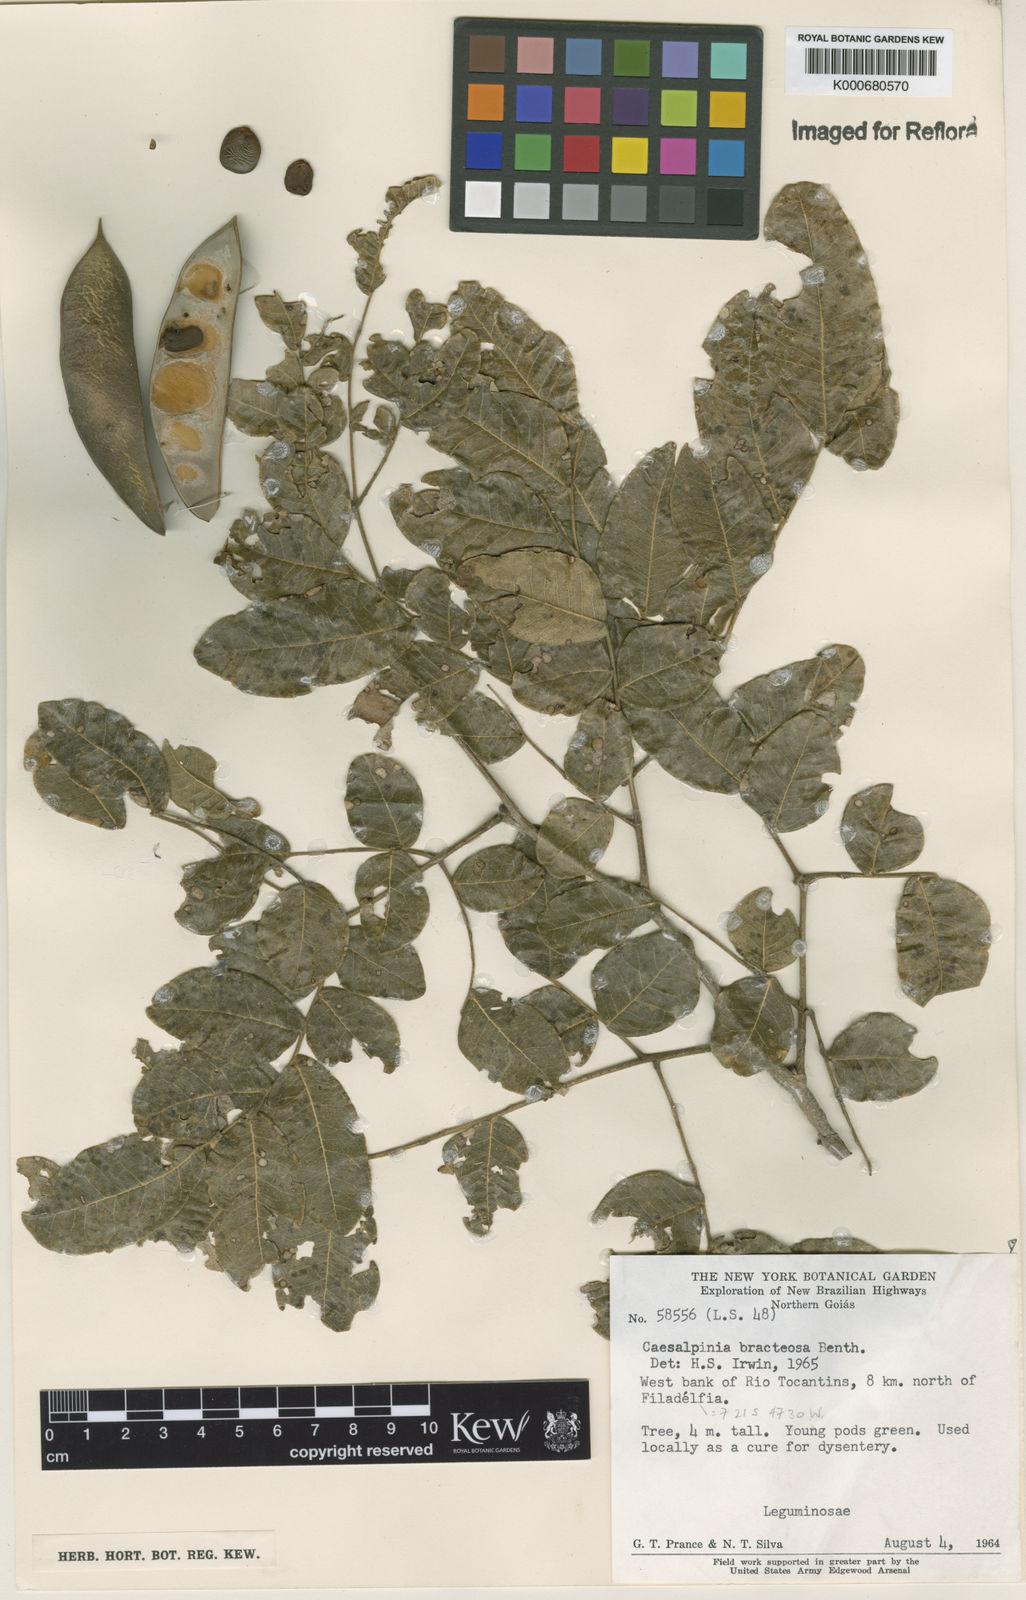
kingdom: Plantae
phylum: Tracheophyta
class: Magnoliopsida
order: Fabales
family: Fabaceae
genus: Cenostigma
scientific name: Cenostigma bracteosum
